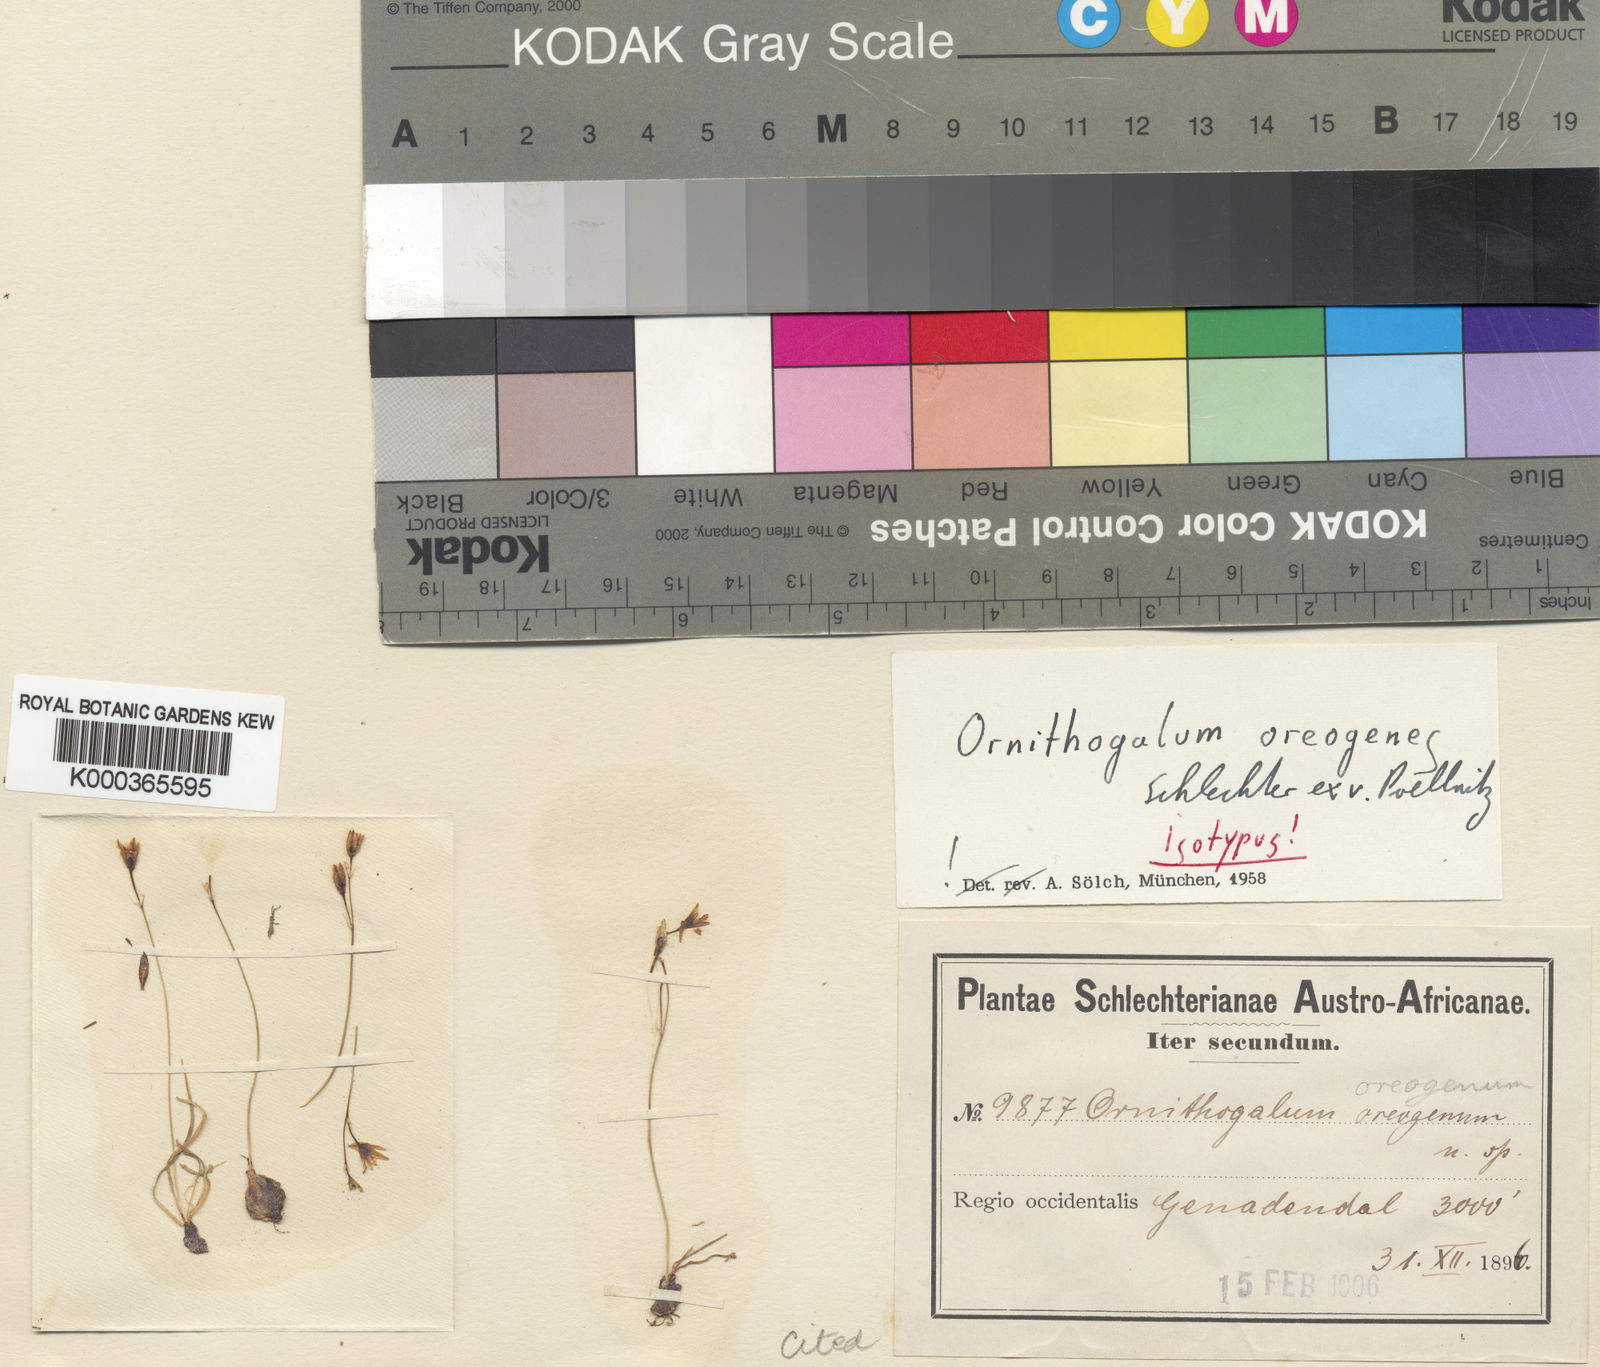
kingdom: Plantae
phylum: Tracheophyta
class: Liliopsida
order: Asparagales
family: Asparagaceae
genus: Ornithogalum
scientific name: Ornithogalum
